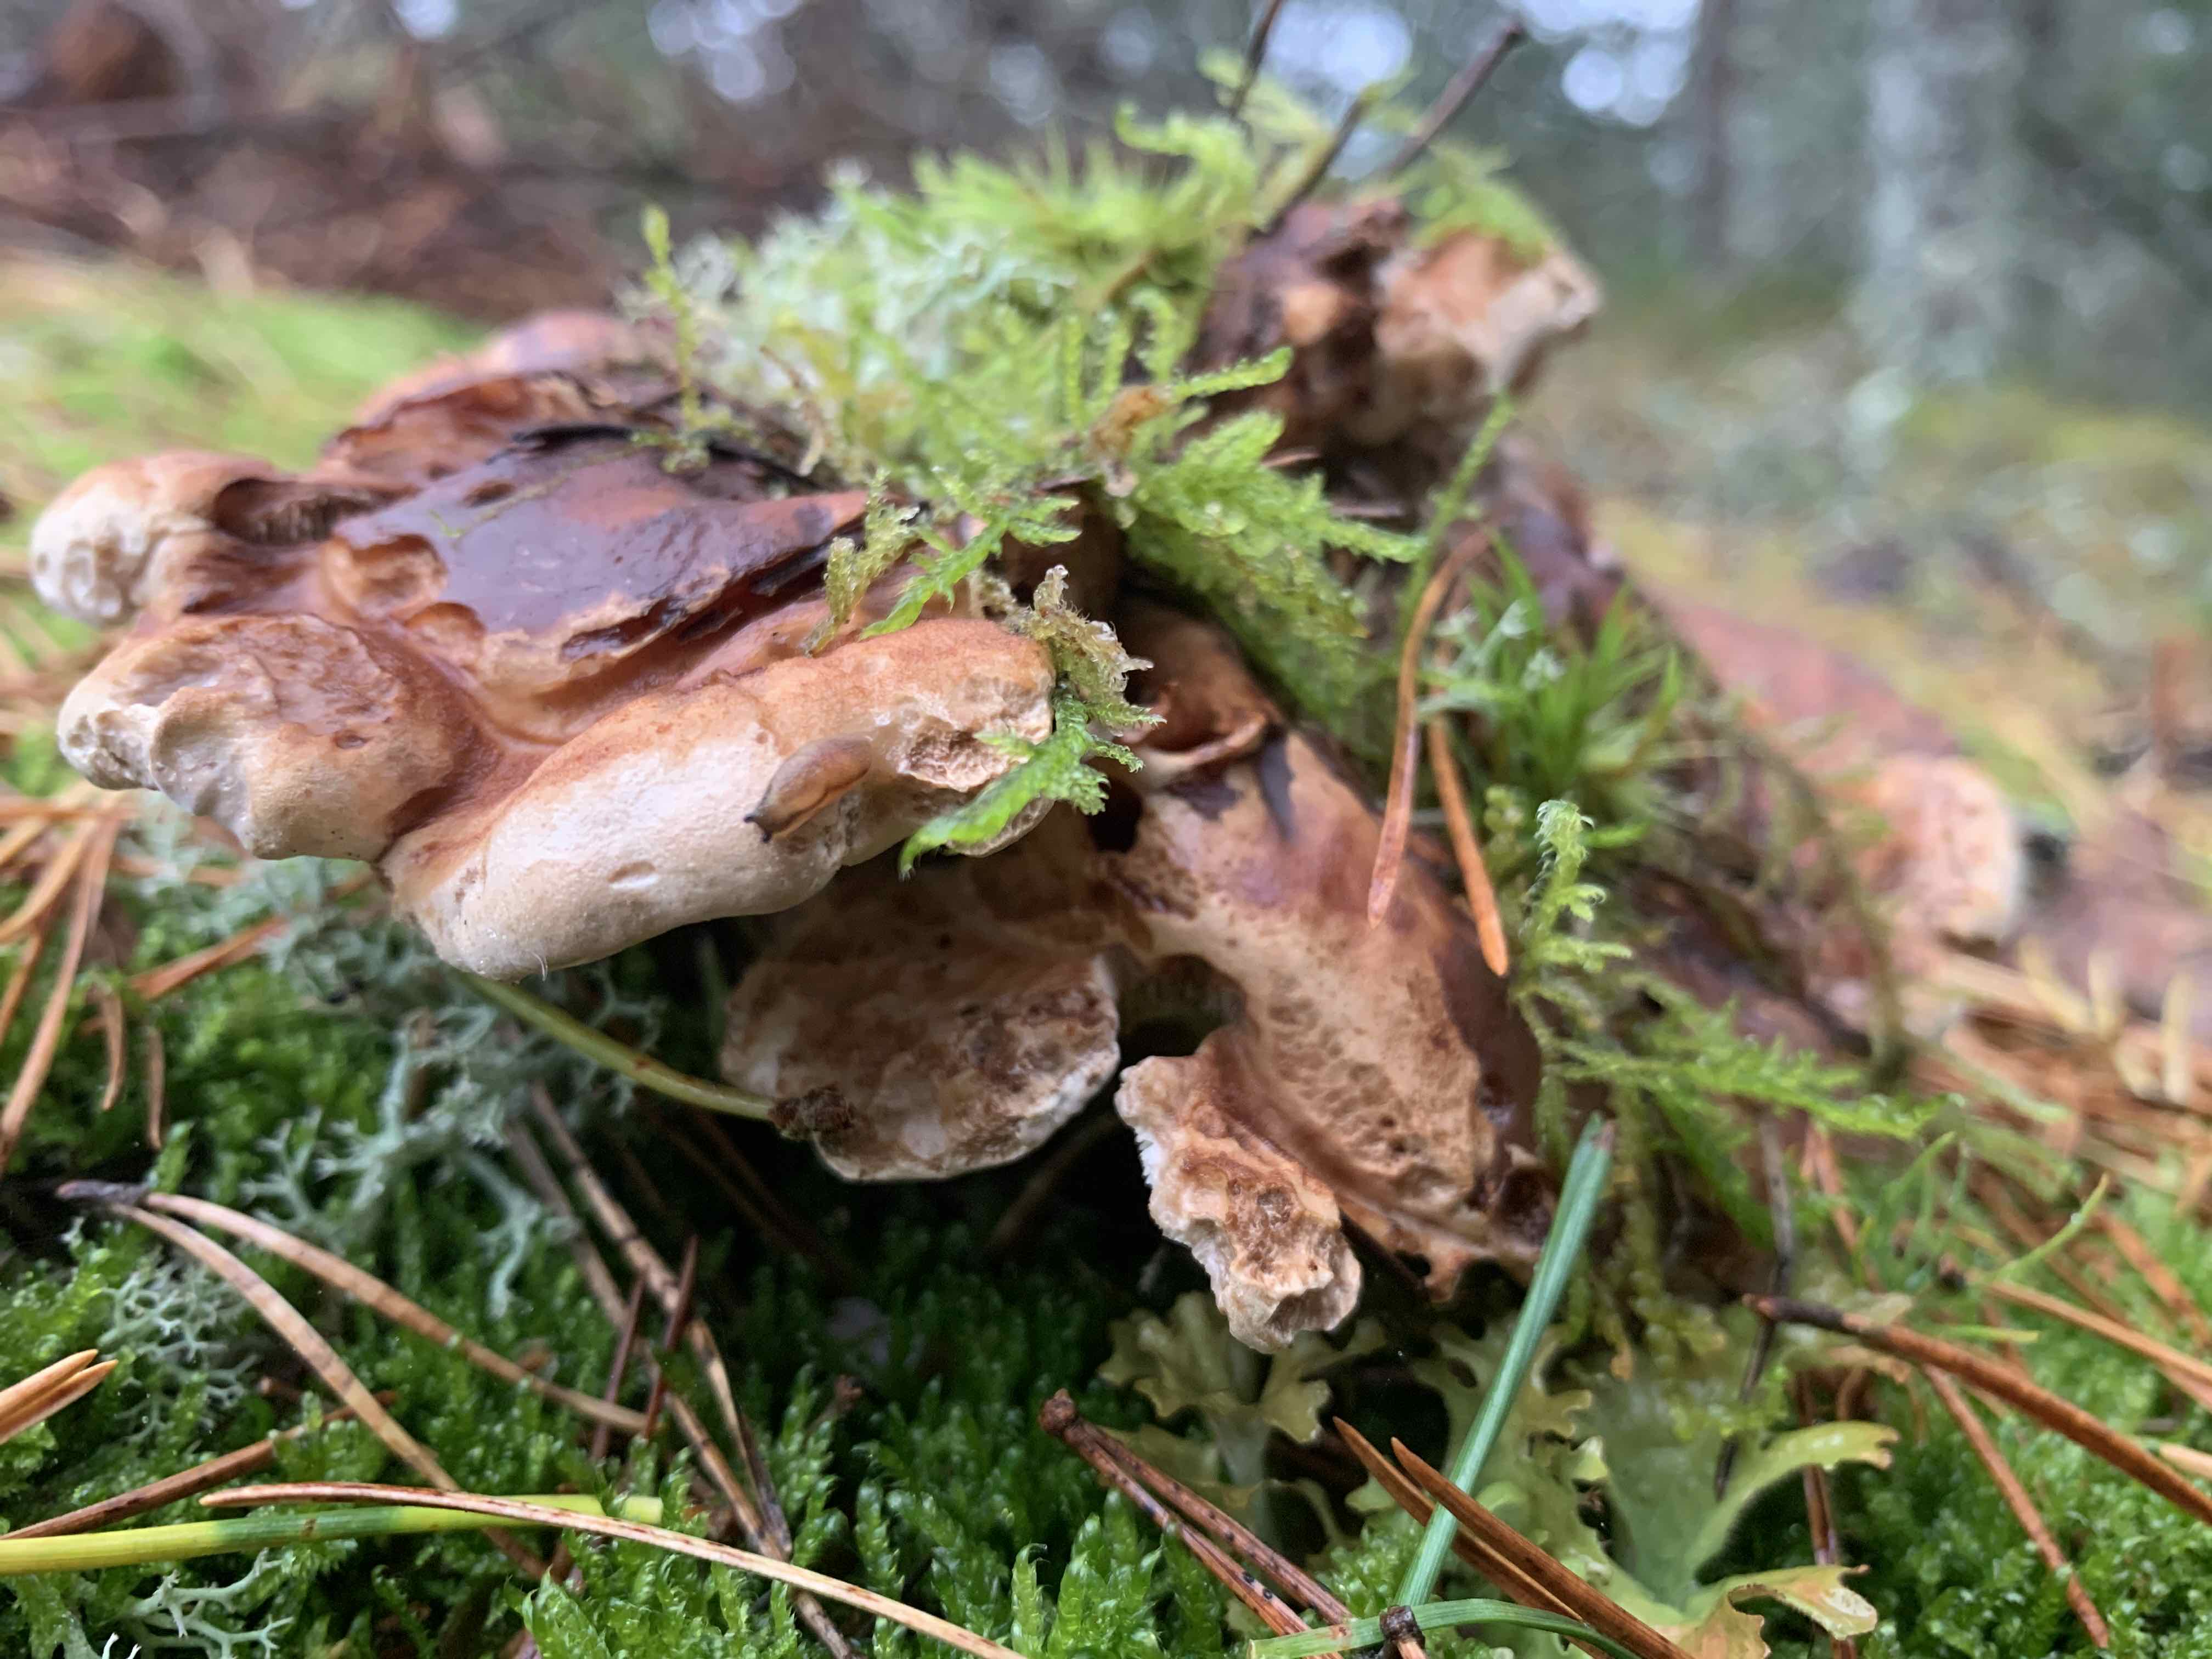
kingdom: Fungi
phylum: Basidiomycota
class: Agaricomycetes
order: Thelephorales
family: Thelephoraceae
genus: Phellodon
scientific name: Phellodon fuligineoalbus
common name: pjusket duftpigsvamp
